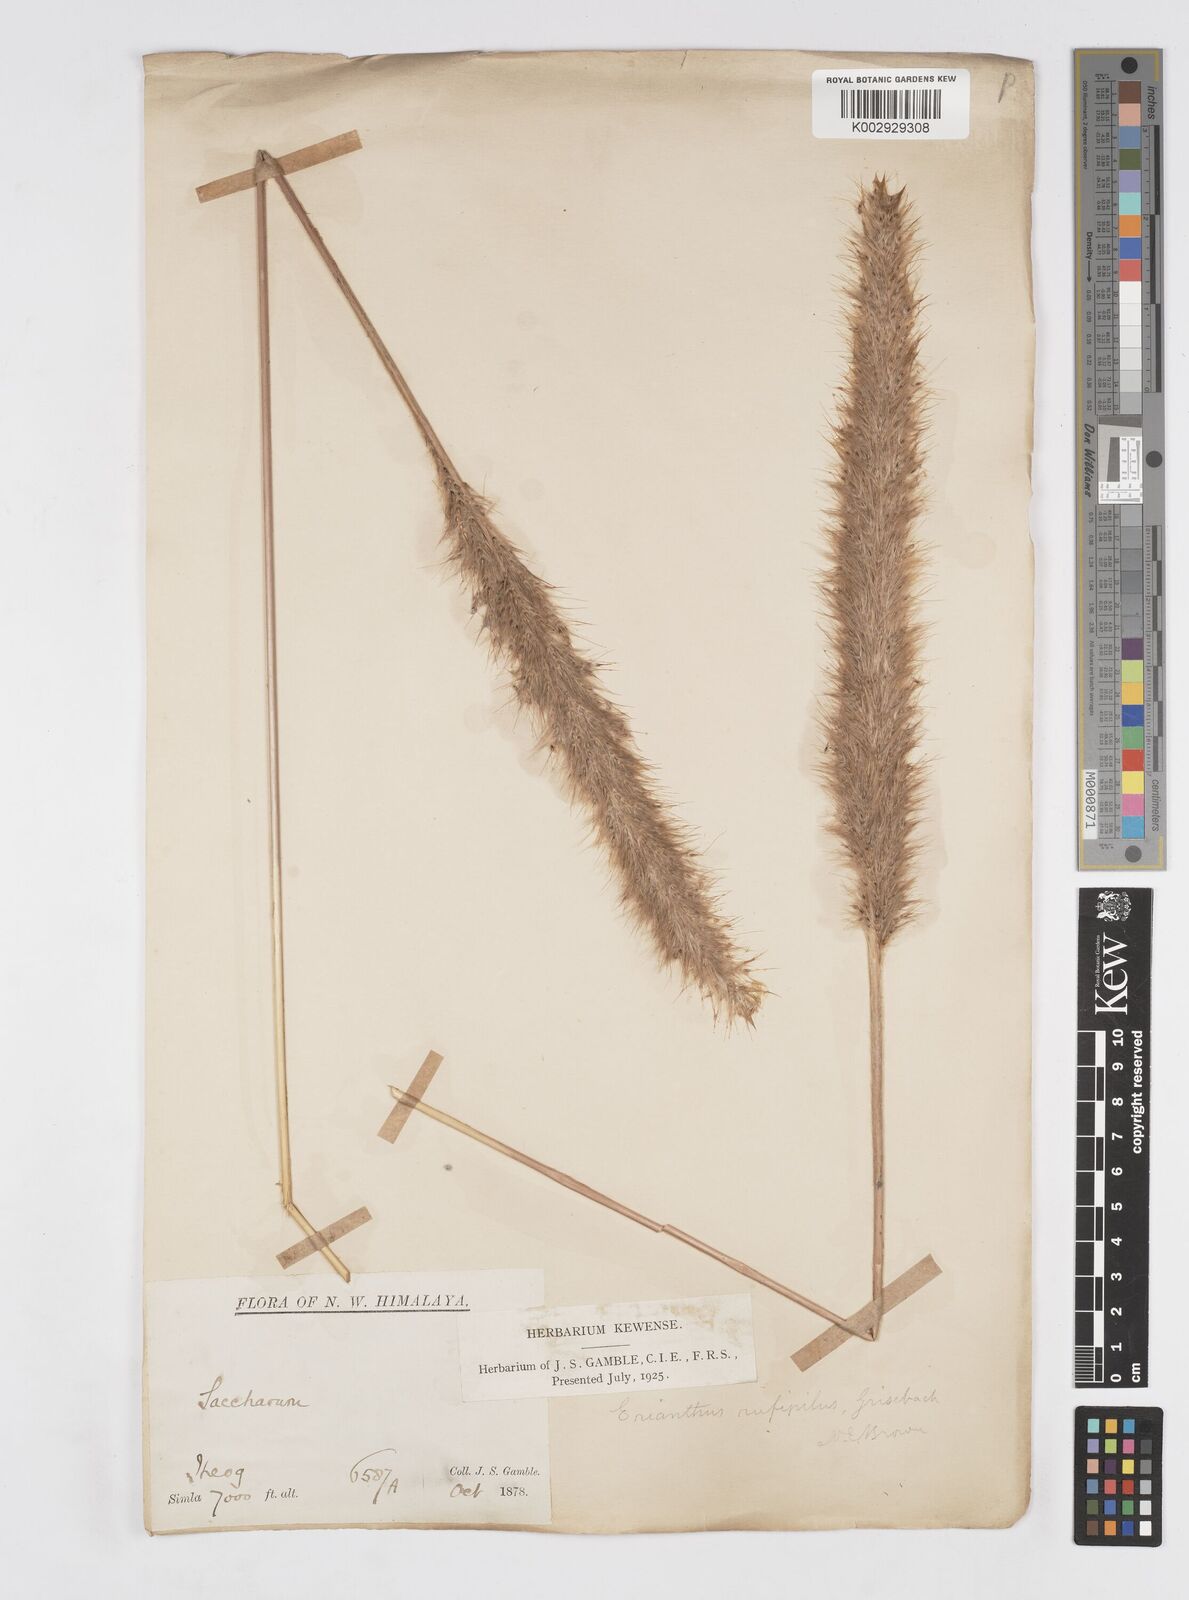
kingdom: Plantae
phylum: Tracheophyta
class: Liliopsida
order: Poales
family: Poaceae
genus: Tripidium
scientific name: Tripidium rufipilum
